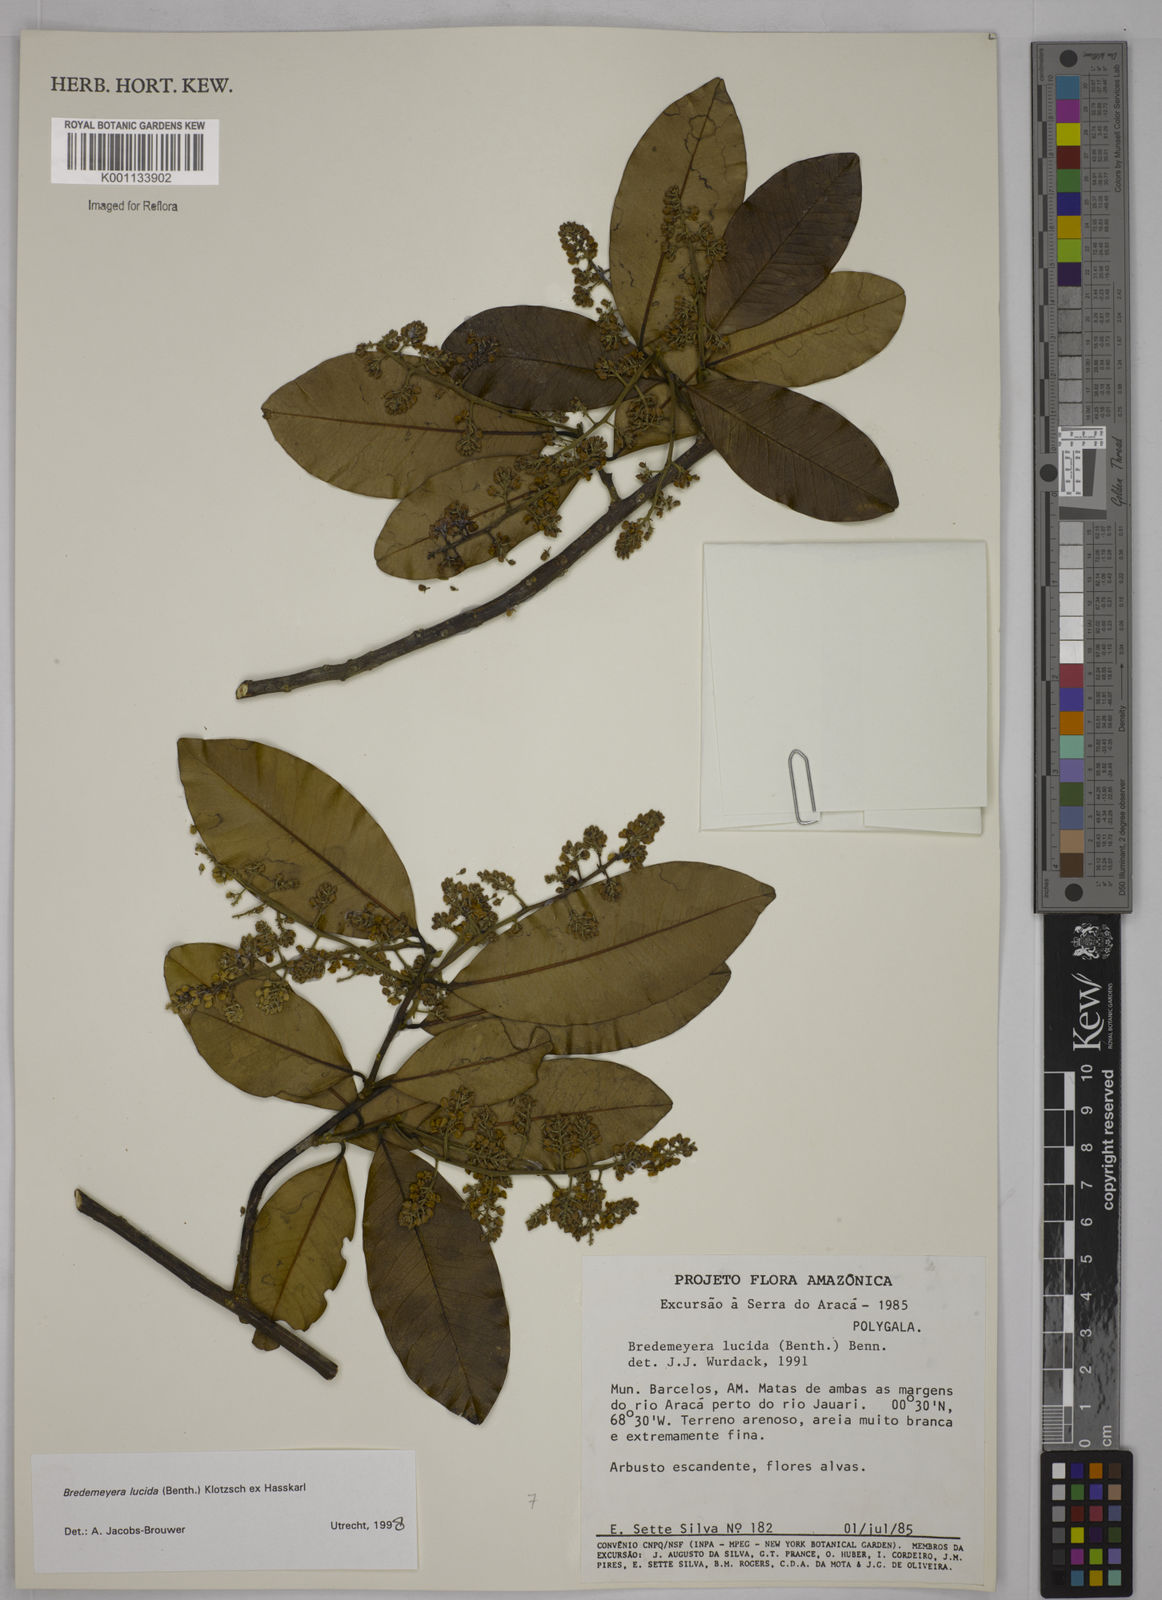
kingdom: Plantae
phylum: Tracheophyta
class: Magnoliopsida
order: Fabales
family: Polygalaceae
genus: Bredemeyera
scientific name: Bredemeyera lucida
